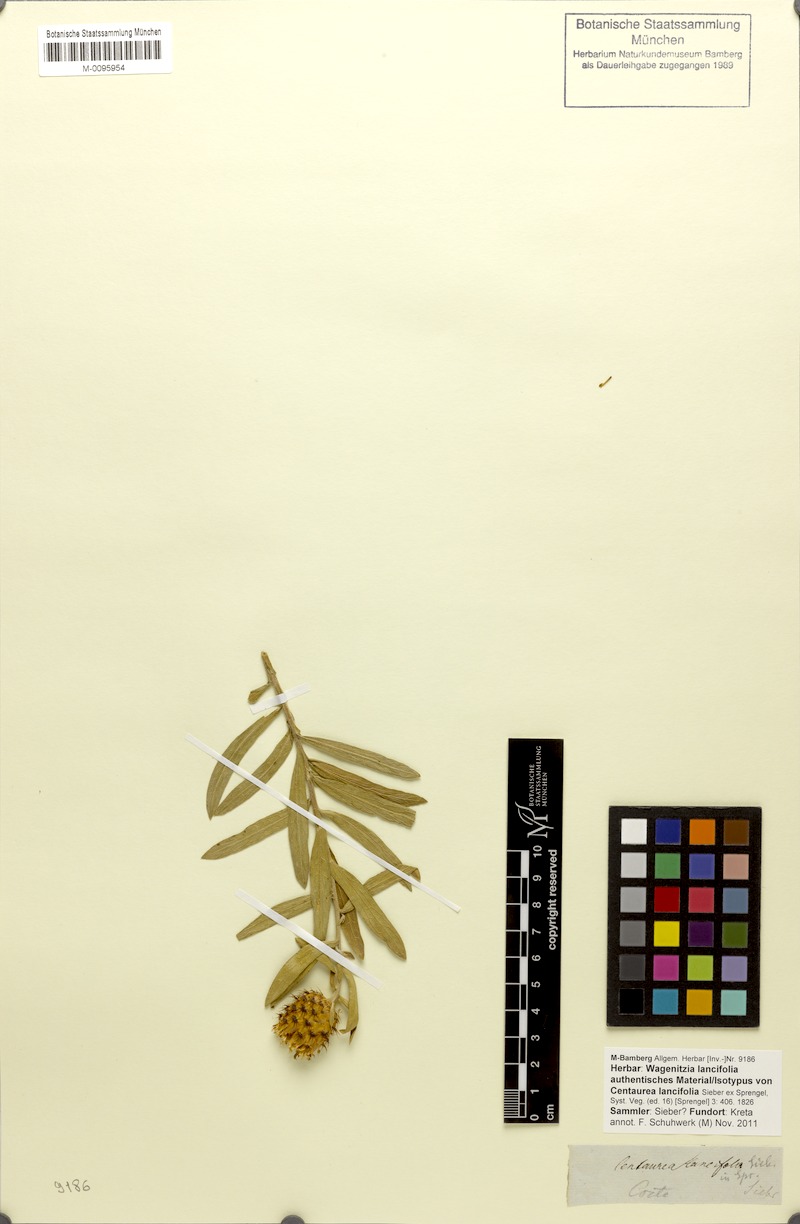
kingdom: Plantae
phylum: Tracheophyta
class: Magnoliopsida
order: Asterales
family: Asteraceae
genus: Centaurea
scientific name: Centaurea lancifolia
